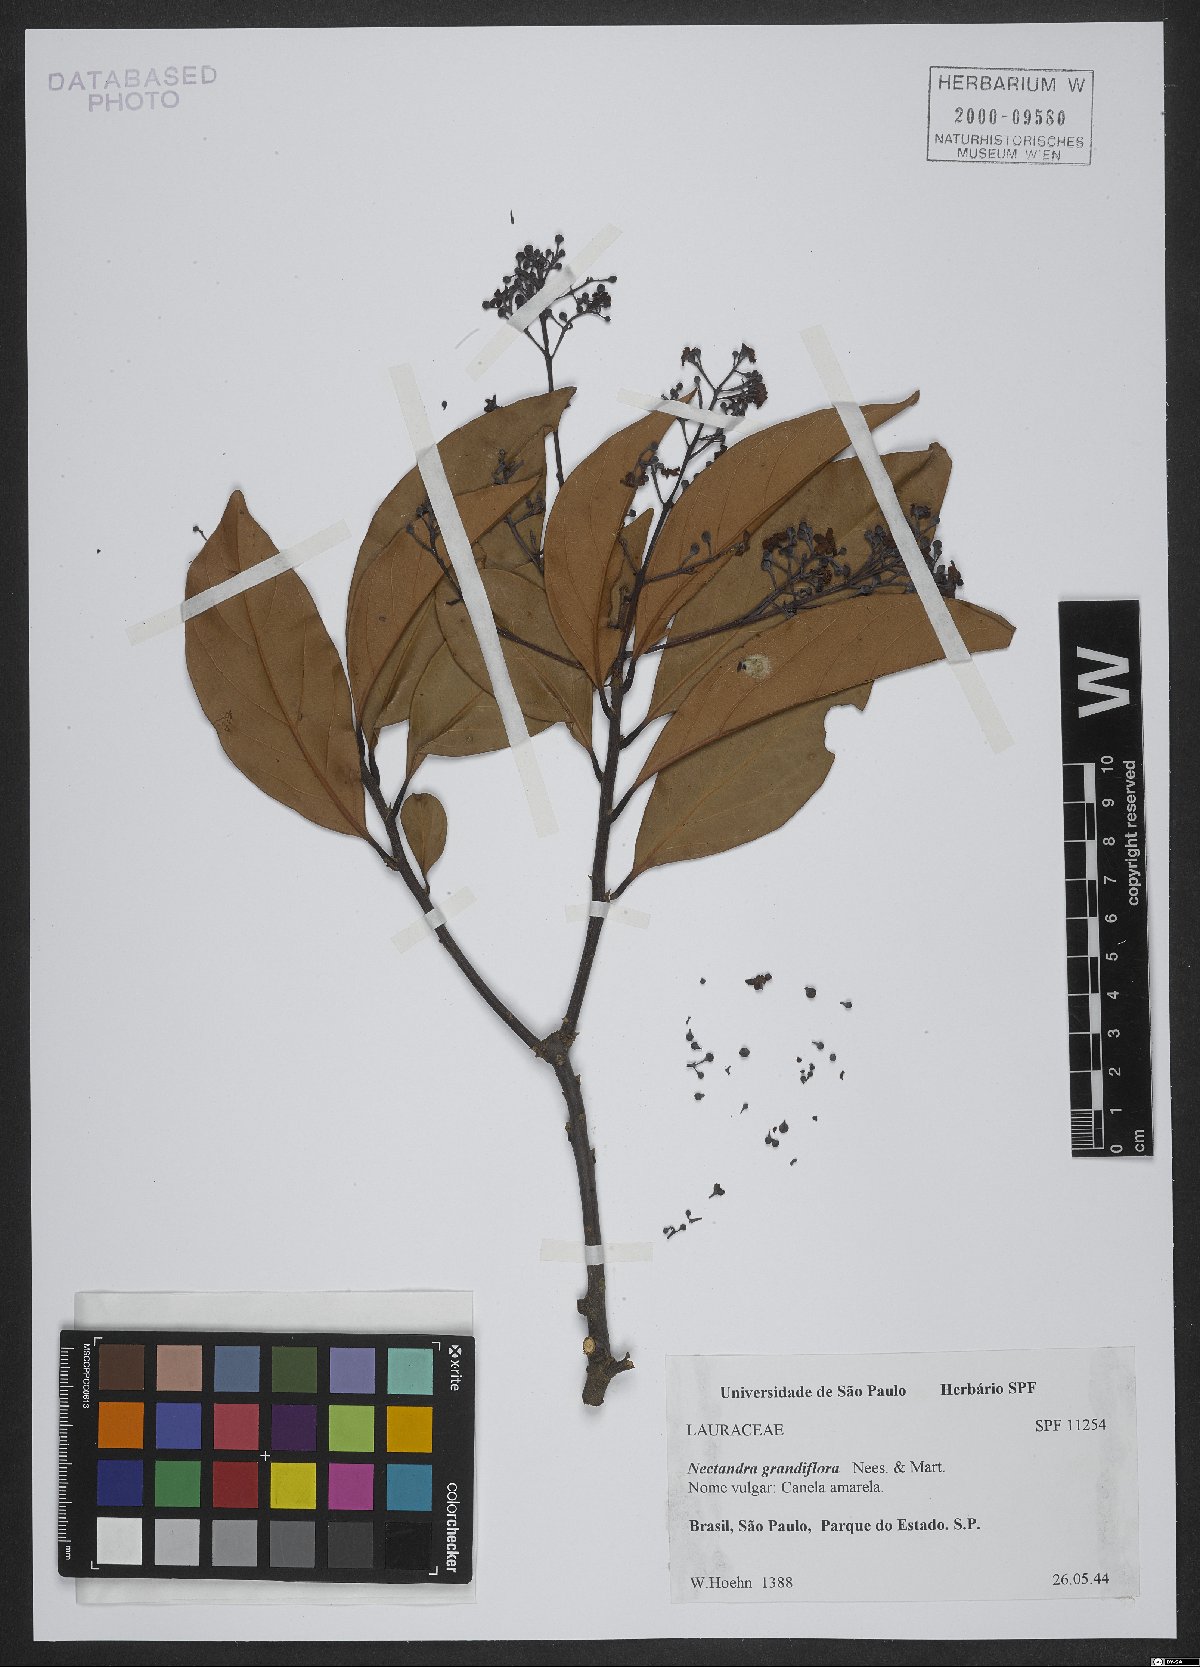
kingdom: Plantae
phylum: Tracheophyta
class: Magnoliopsida
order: Laurales
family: Lauraceae
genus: Nectandra
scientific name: Nectandra grandiflora
